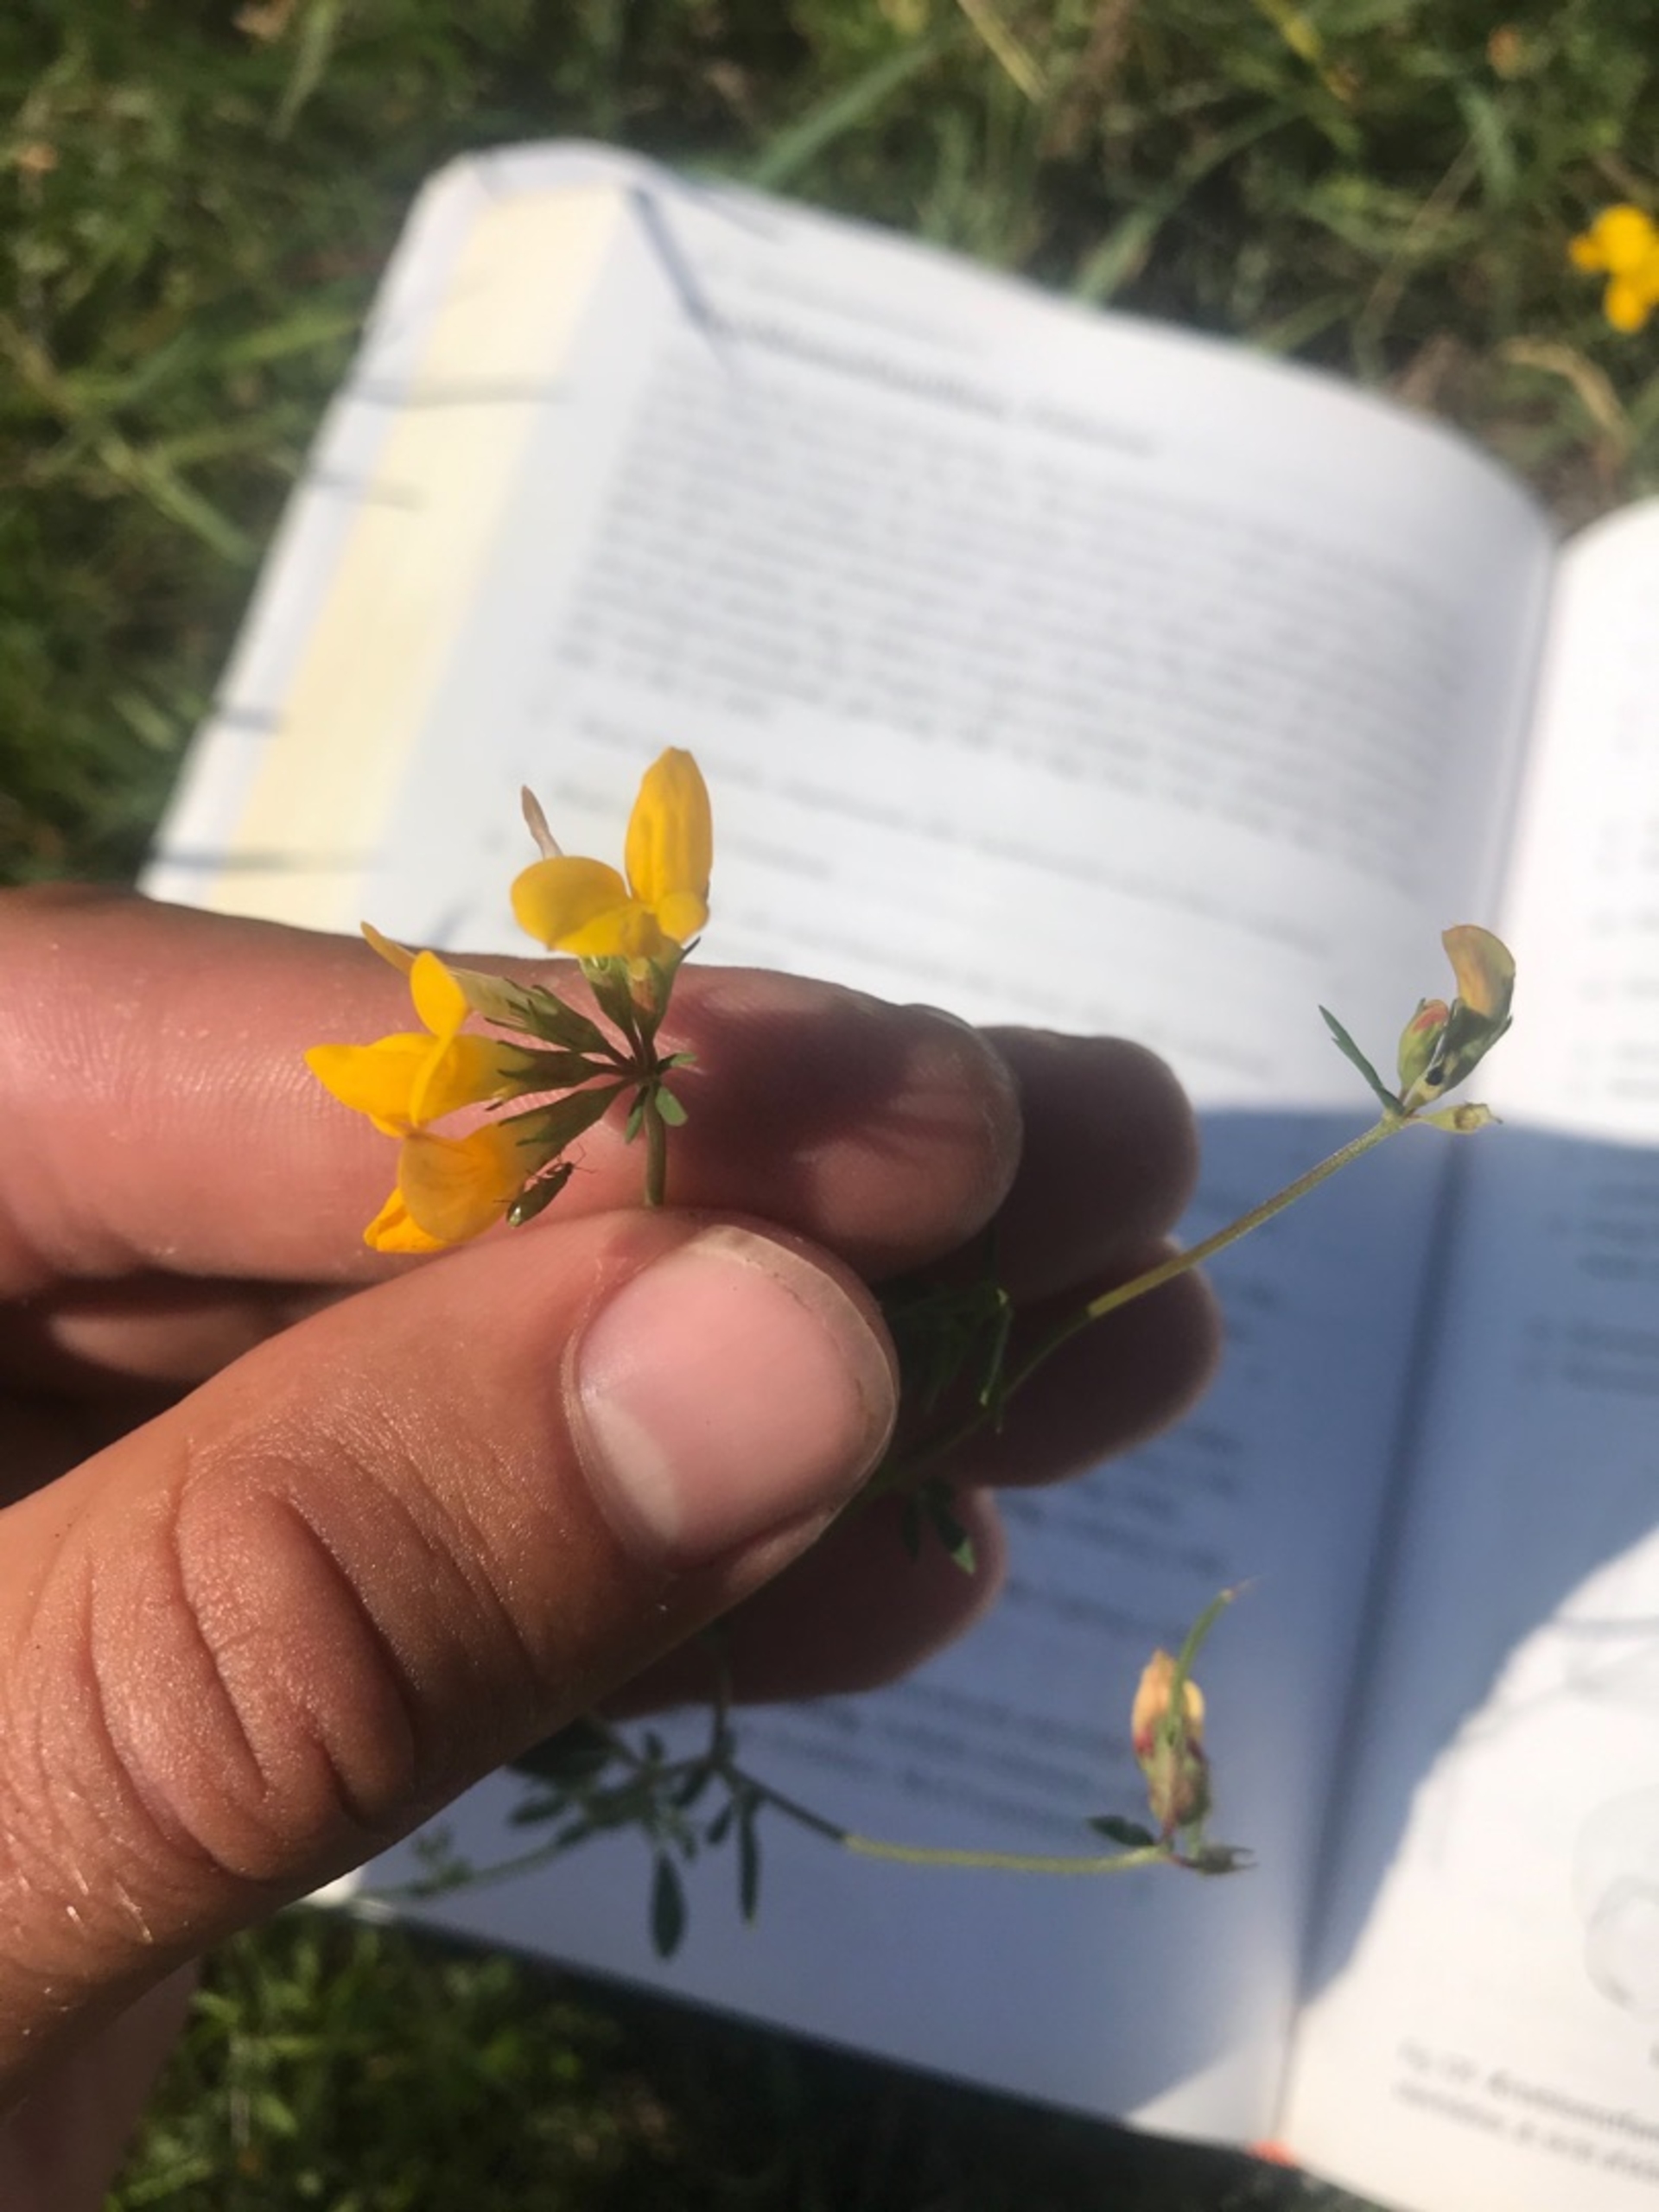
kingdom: Plantae
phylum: Tracheophyta
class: Magnoliopsida
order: Fabales
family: Fabaceae
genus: Lotus
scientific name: Lotus corniculatus
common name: Almindelig kællingetand
